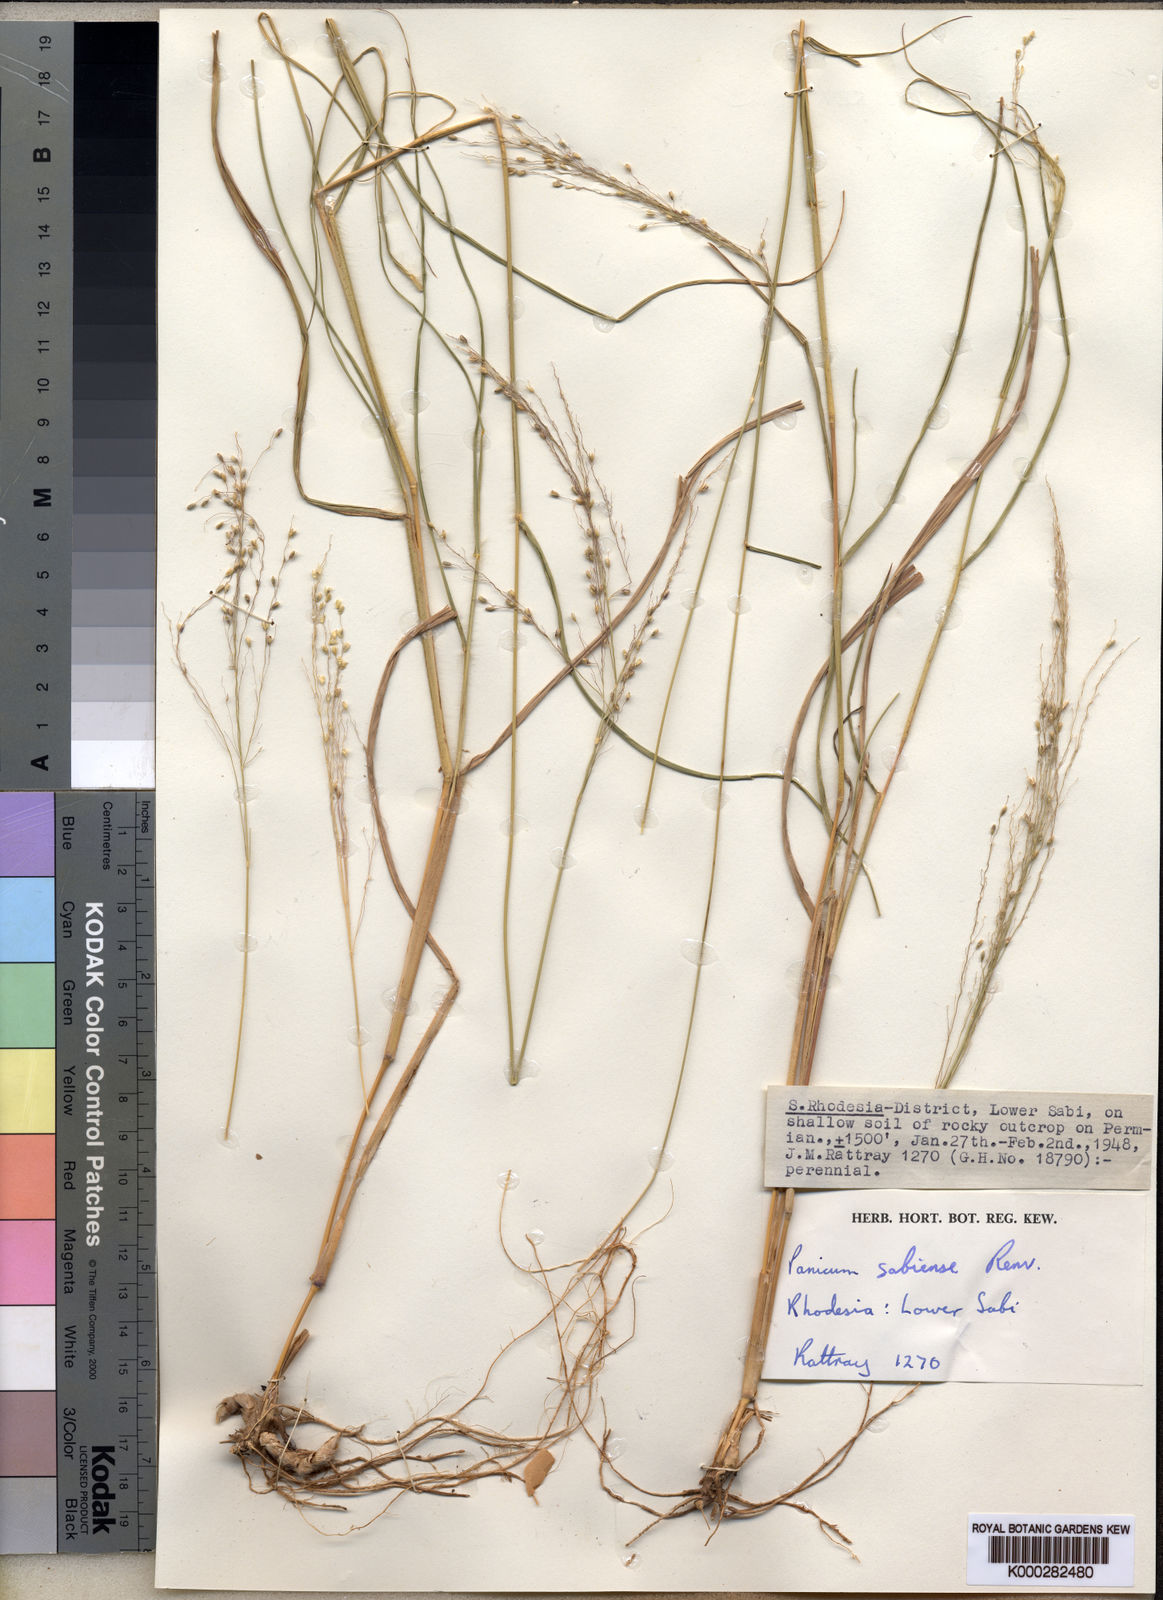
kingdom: Plantae
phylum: Tracheophyta
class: Liliopsida
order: Poales
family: Poaceae
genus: Panicum
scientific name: Panicum trichoides
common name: Tickle grass
